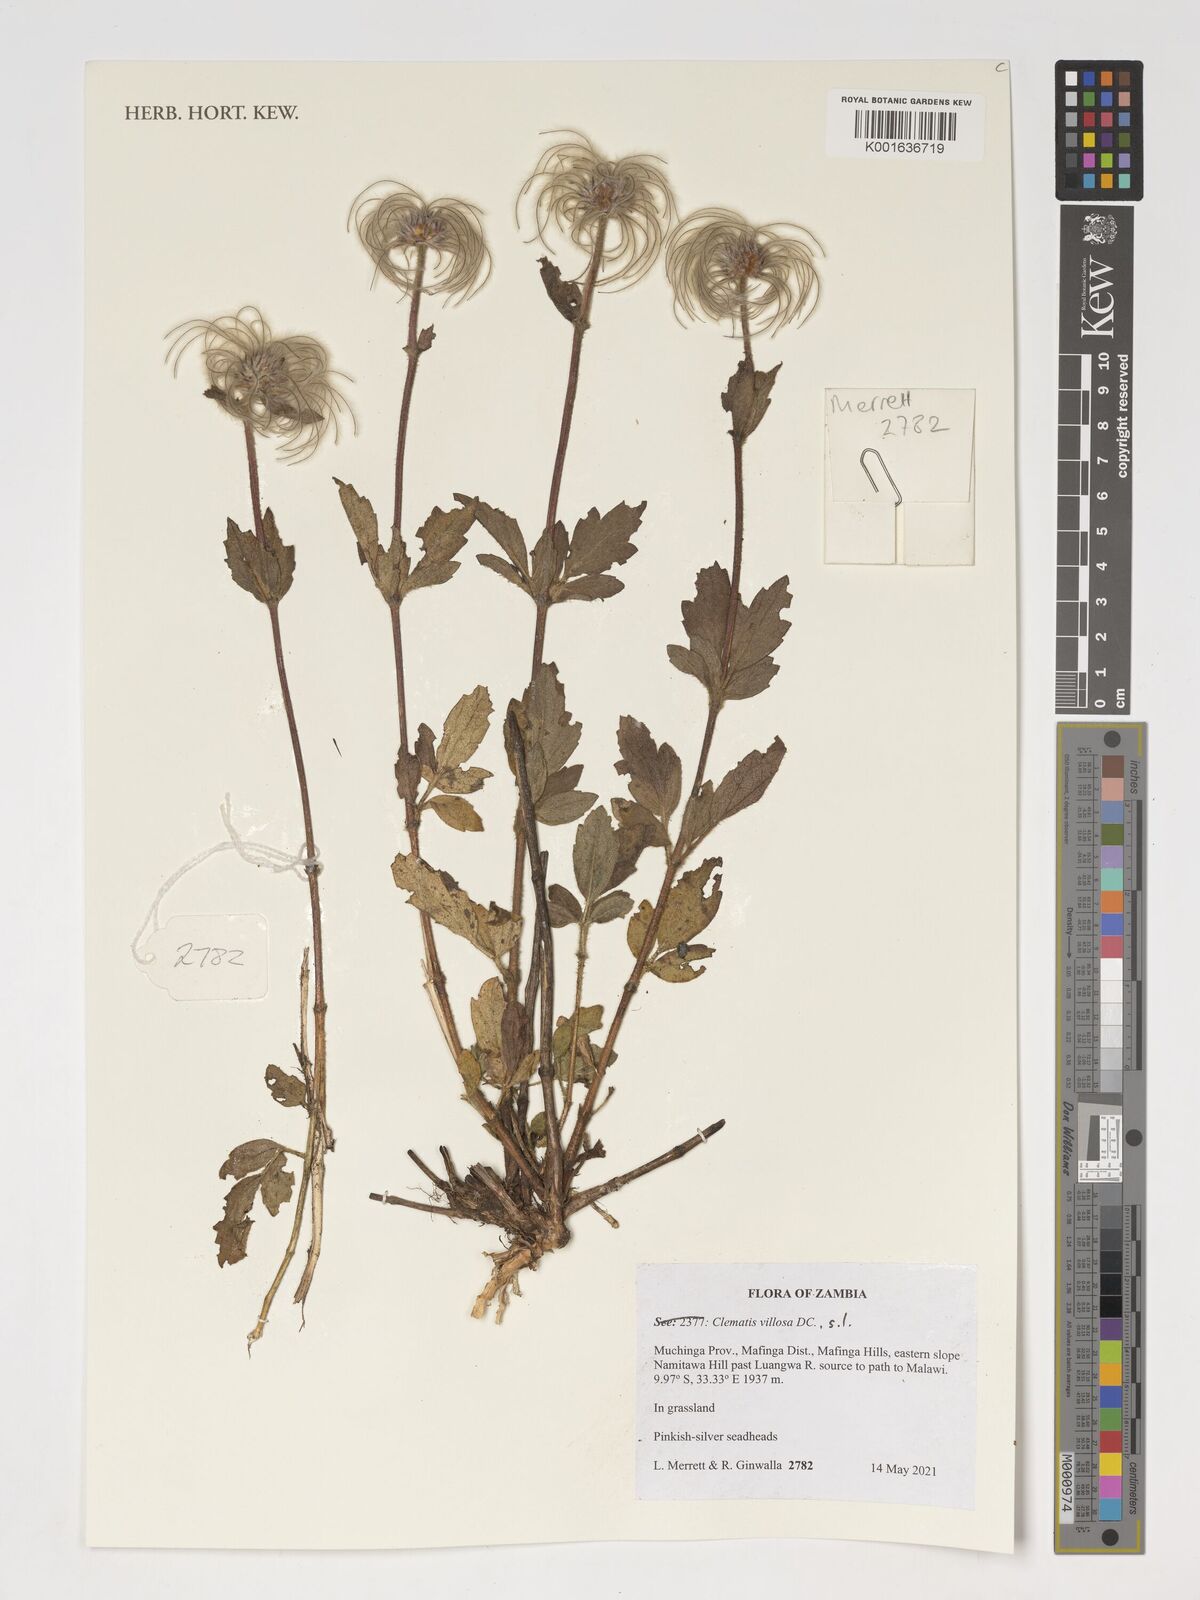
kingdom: Plantae
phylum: Tracheophyta
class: Magnoliopsida
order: Ranunculales
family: Ranunculaceae
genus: Clematis
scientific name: Clematis villosa
